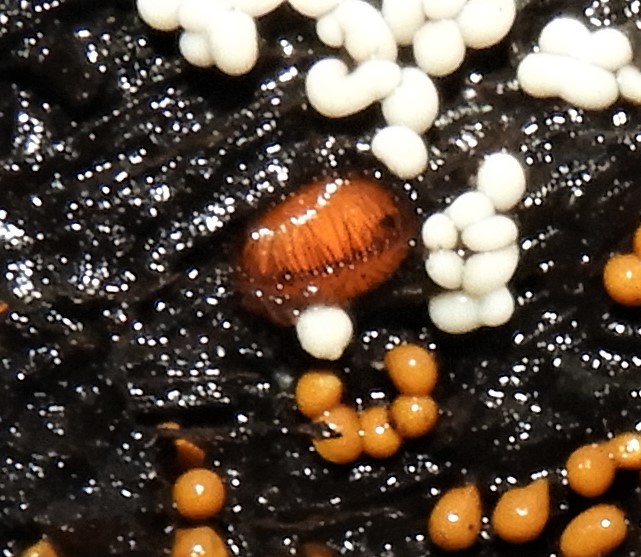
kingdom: Fungi
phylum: Ascomycota
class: Pezizomycetes
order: Pezizales
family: Pyronemataceae
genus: Scutellinia
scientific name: Scutellinia scutellata
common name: frynset skjoldbæger
